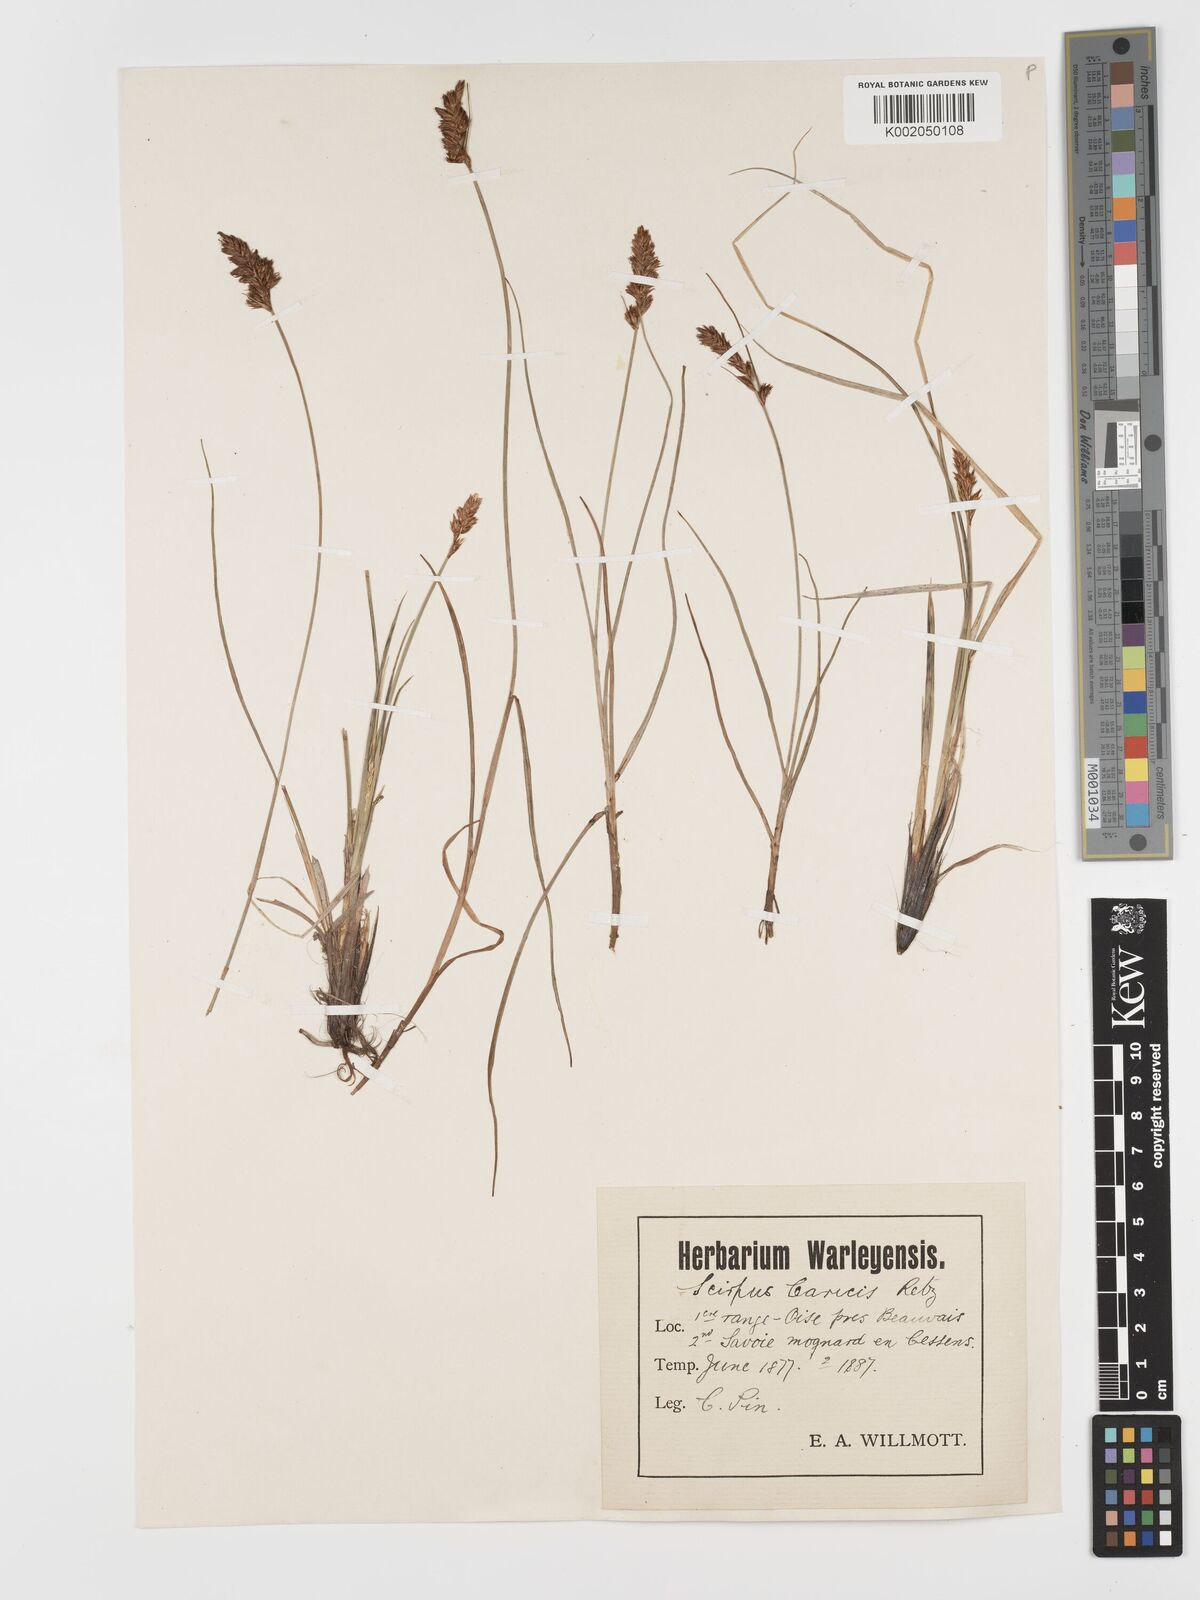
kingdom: Plantae
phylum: Tracheophyta
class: Liliopsida
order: Poales
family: Cyperaceae
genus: Blysmus
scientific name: Blysmus compressus
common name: Flat-sedge
